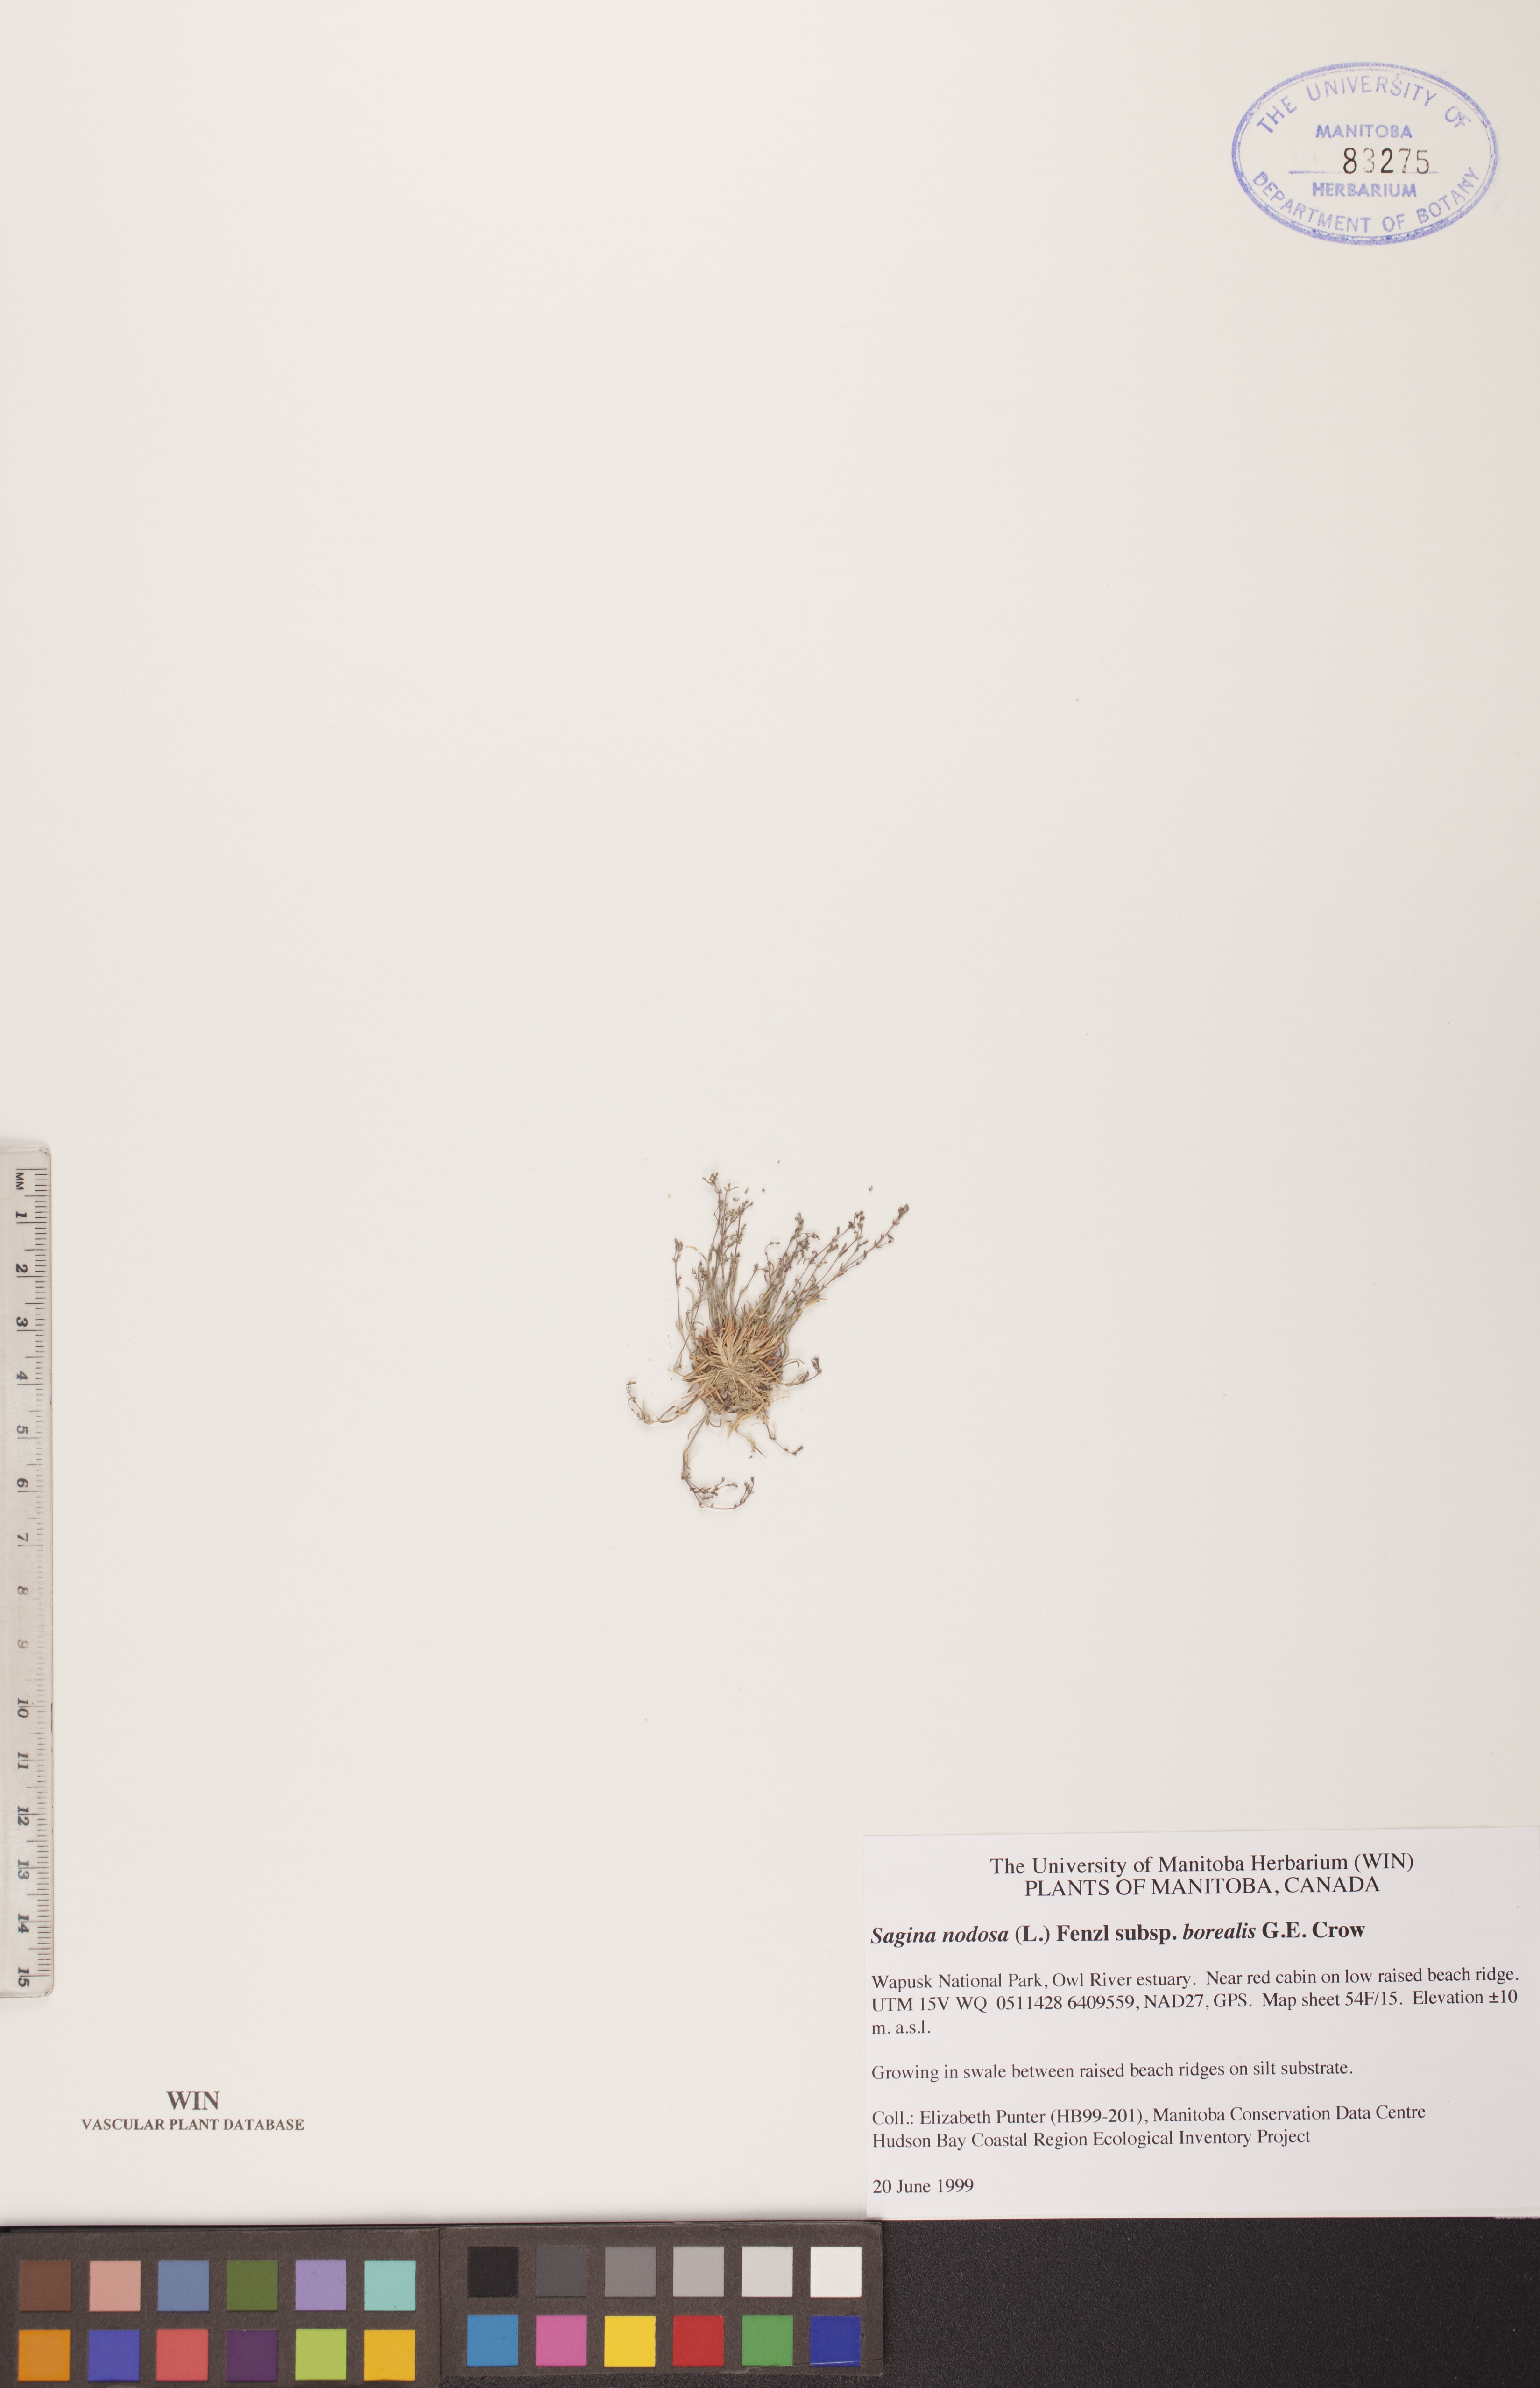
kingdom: Plantae
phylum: Tracheophyta
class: Magnoliopsida
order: Caryophyllales
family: Caryophyllaceae
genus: Sagina
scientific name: Sagina nodosa
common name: Knotted pearlwort
